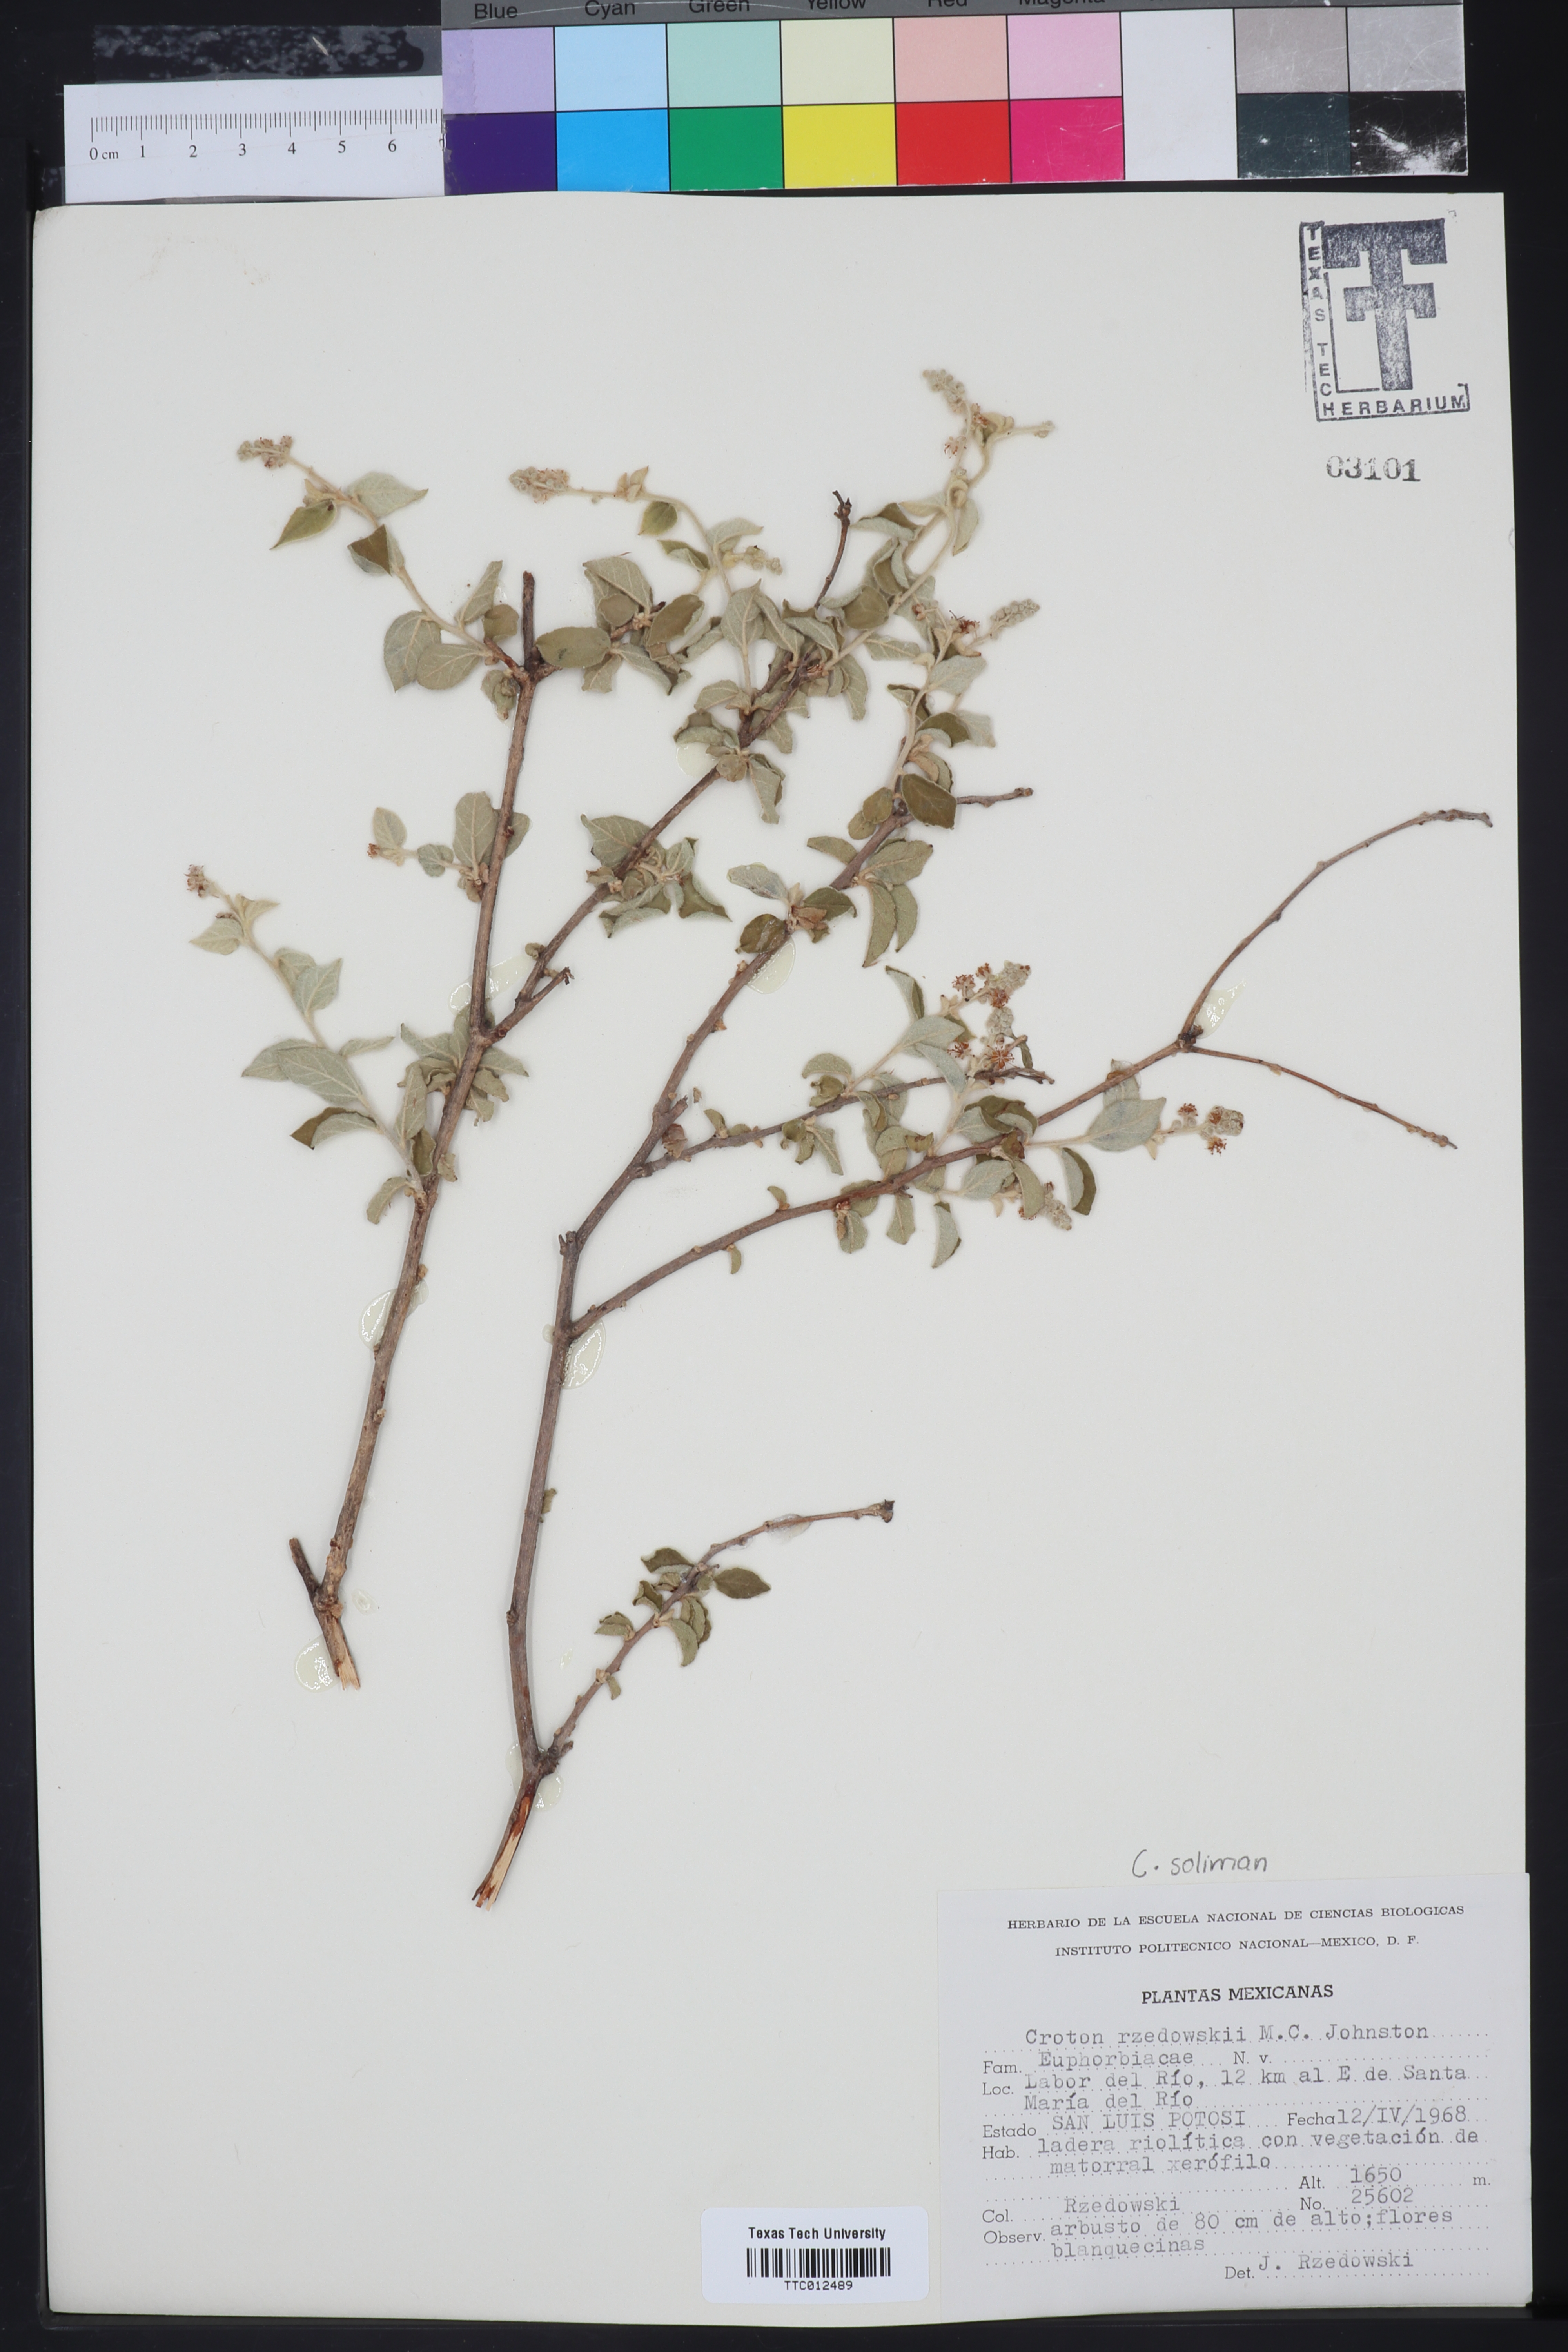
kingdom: Plantae
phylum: Tracheophyta
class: Magnoliopsida
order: Malpighiales
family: Euphorbiaceae
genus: Croton
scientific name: Croton
